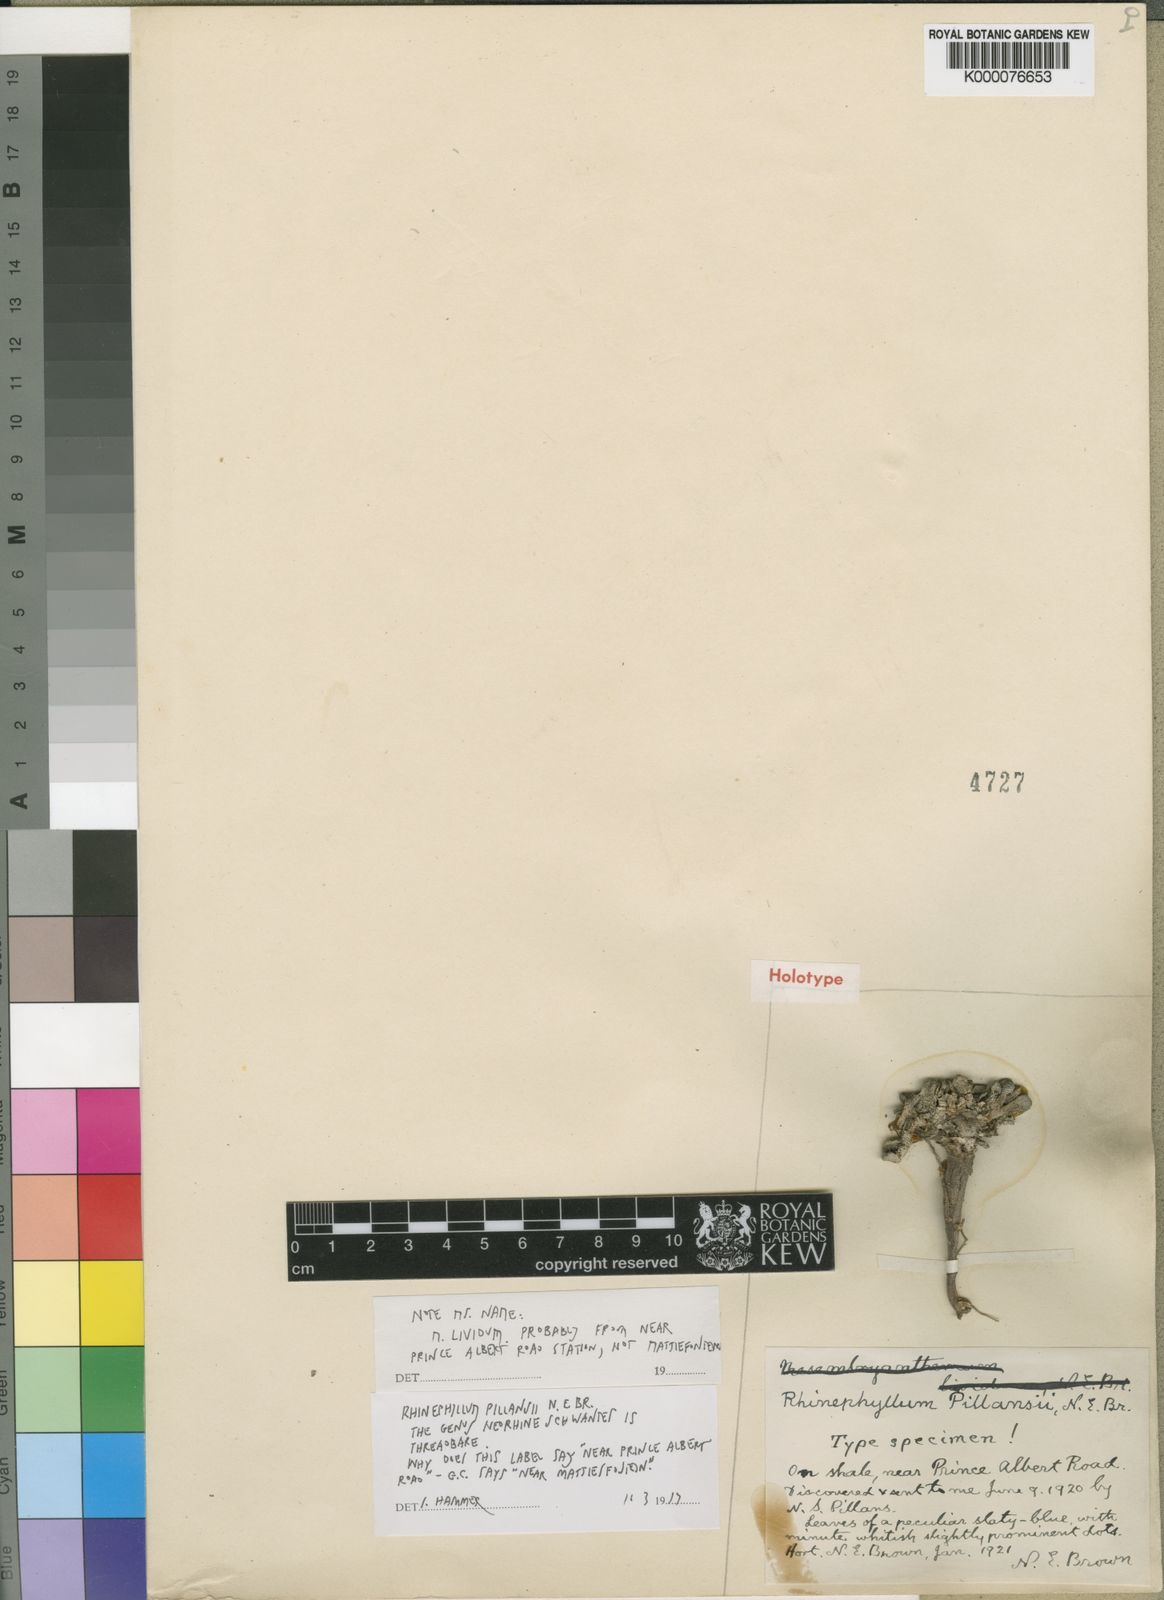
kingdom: Plantae
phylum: Tracheophyta
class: Magnoliopsida
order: Caryophyllales
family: Aizoaceae
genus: Rhinephyllum
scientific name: Rhinephyllum pillansii
